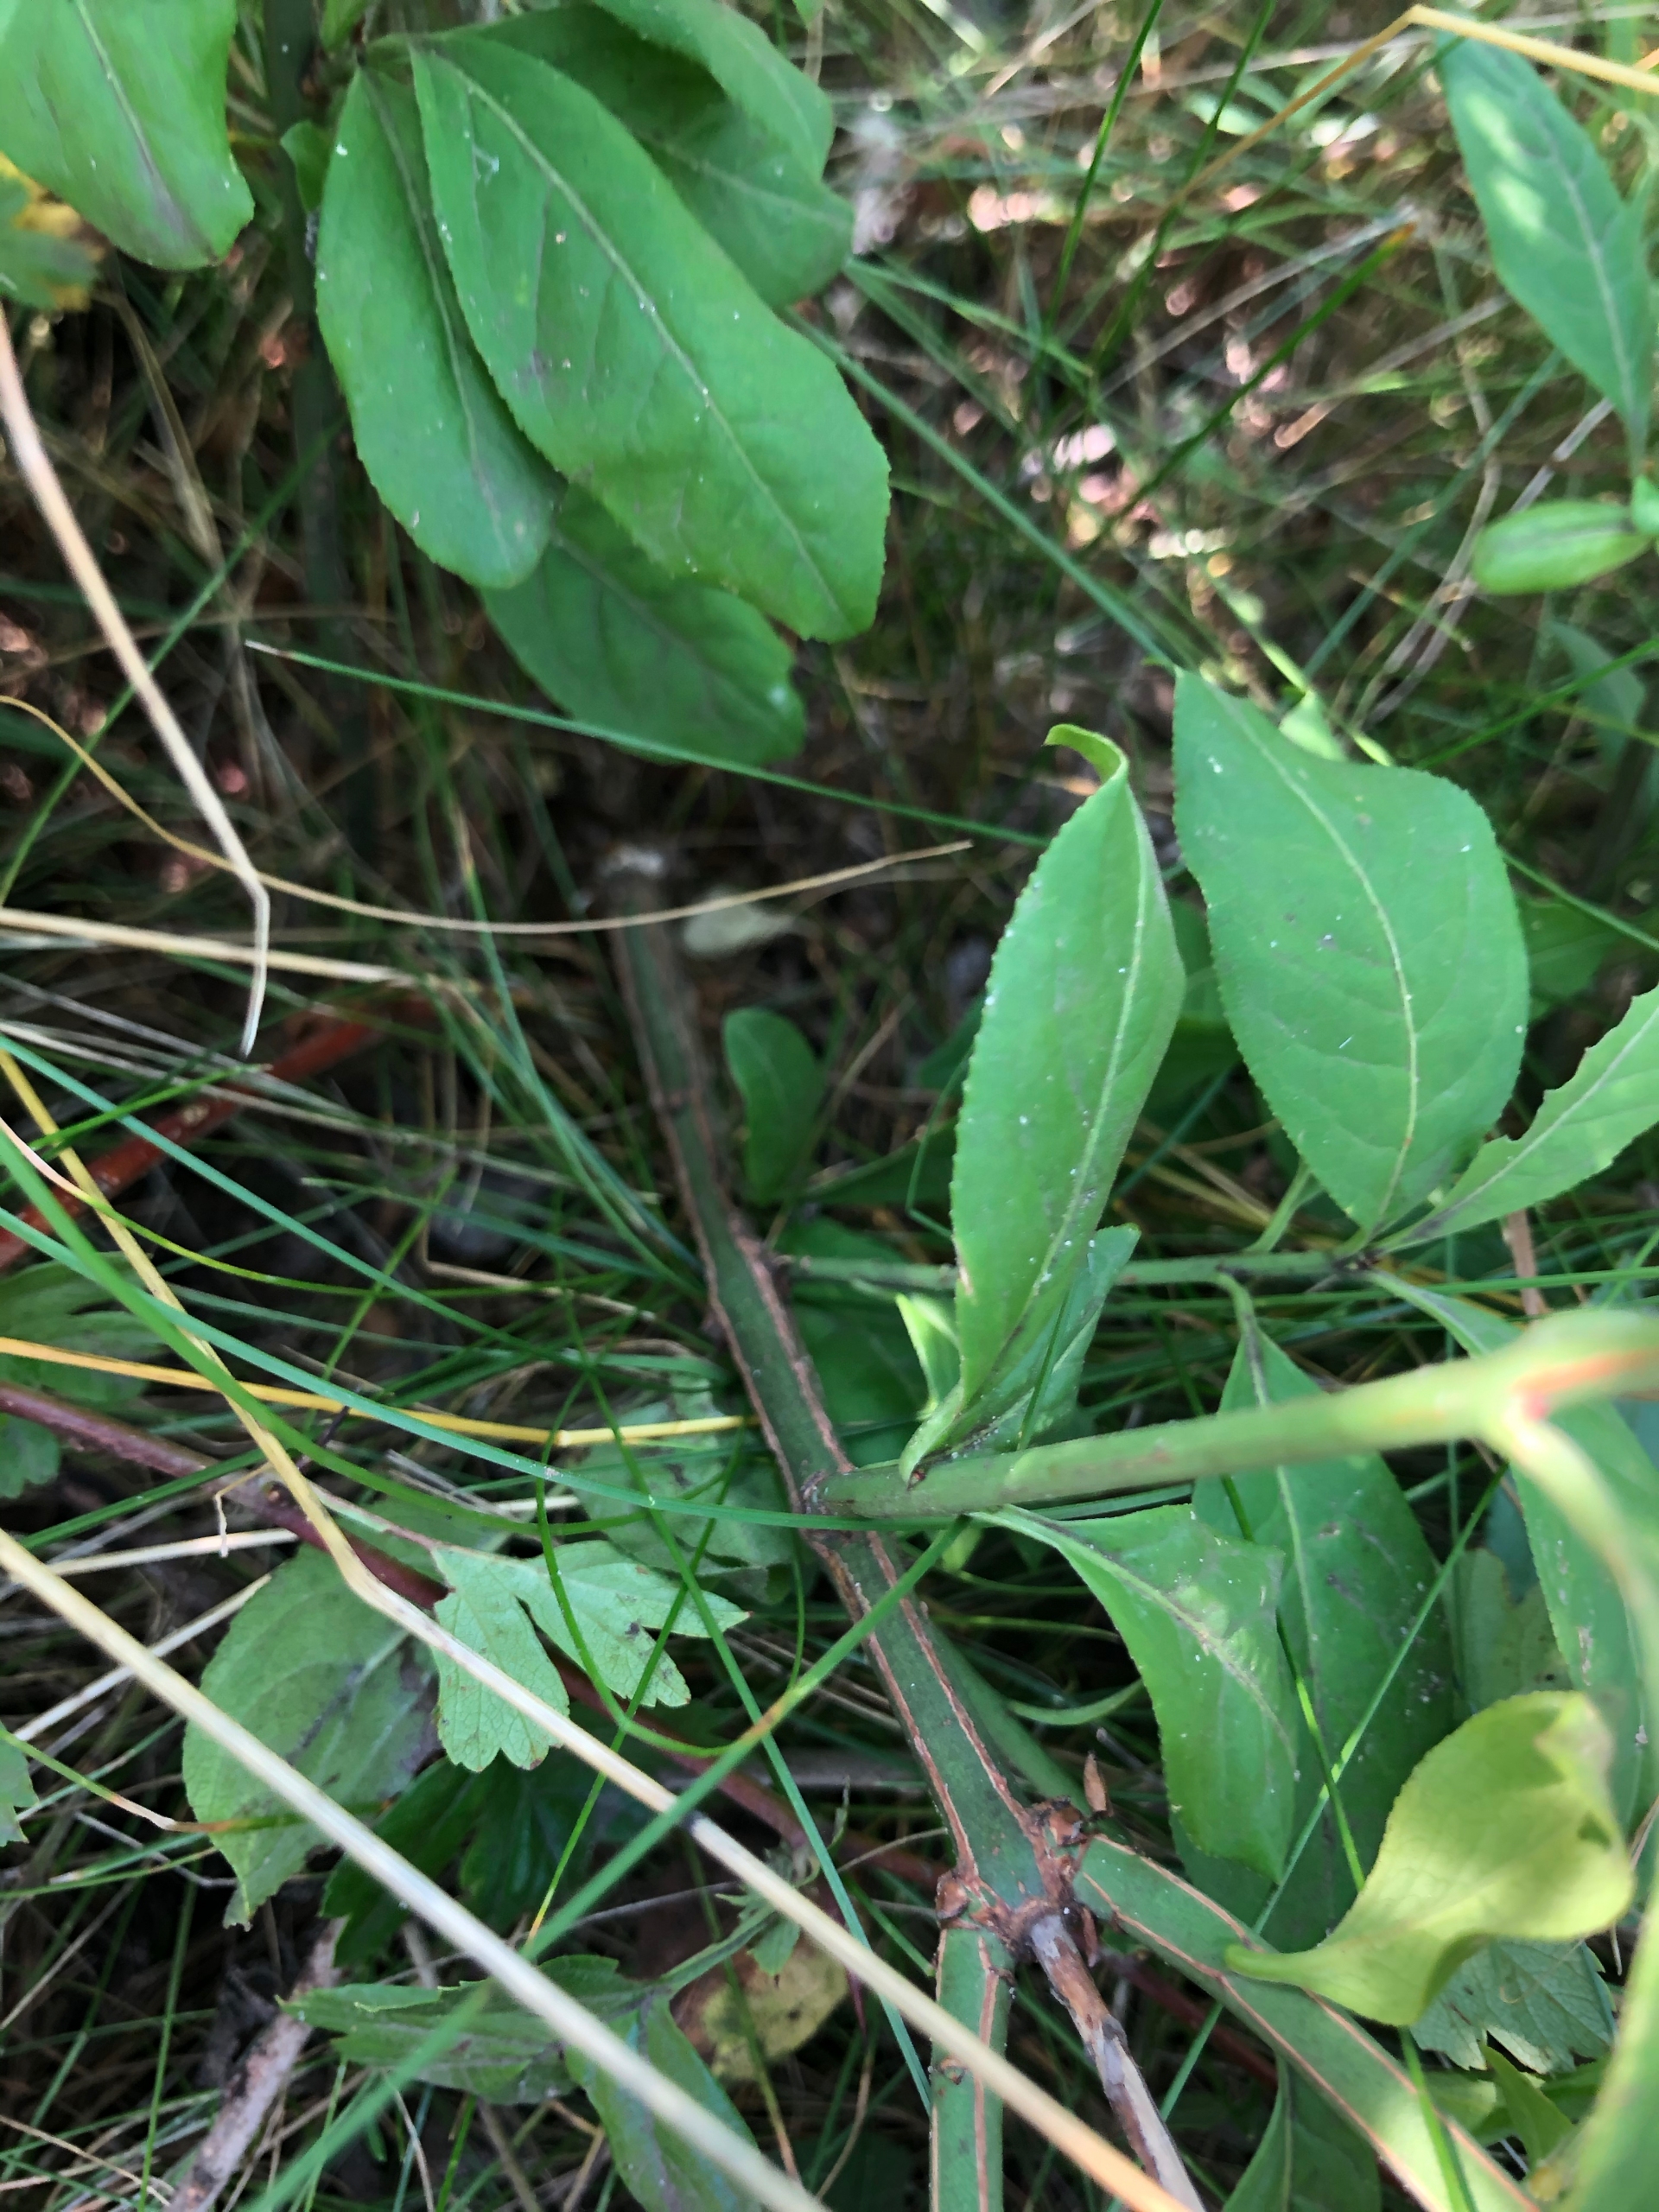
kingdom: Plantae
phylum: Tracheophyta
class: Magnoliopsida
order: Celastrales
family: Celastraceae
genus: Euonymus
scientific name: Euonymus europaeus
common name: Benved
